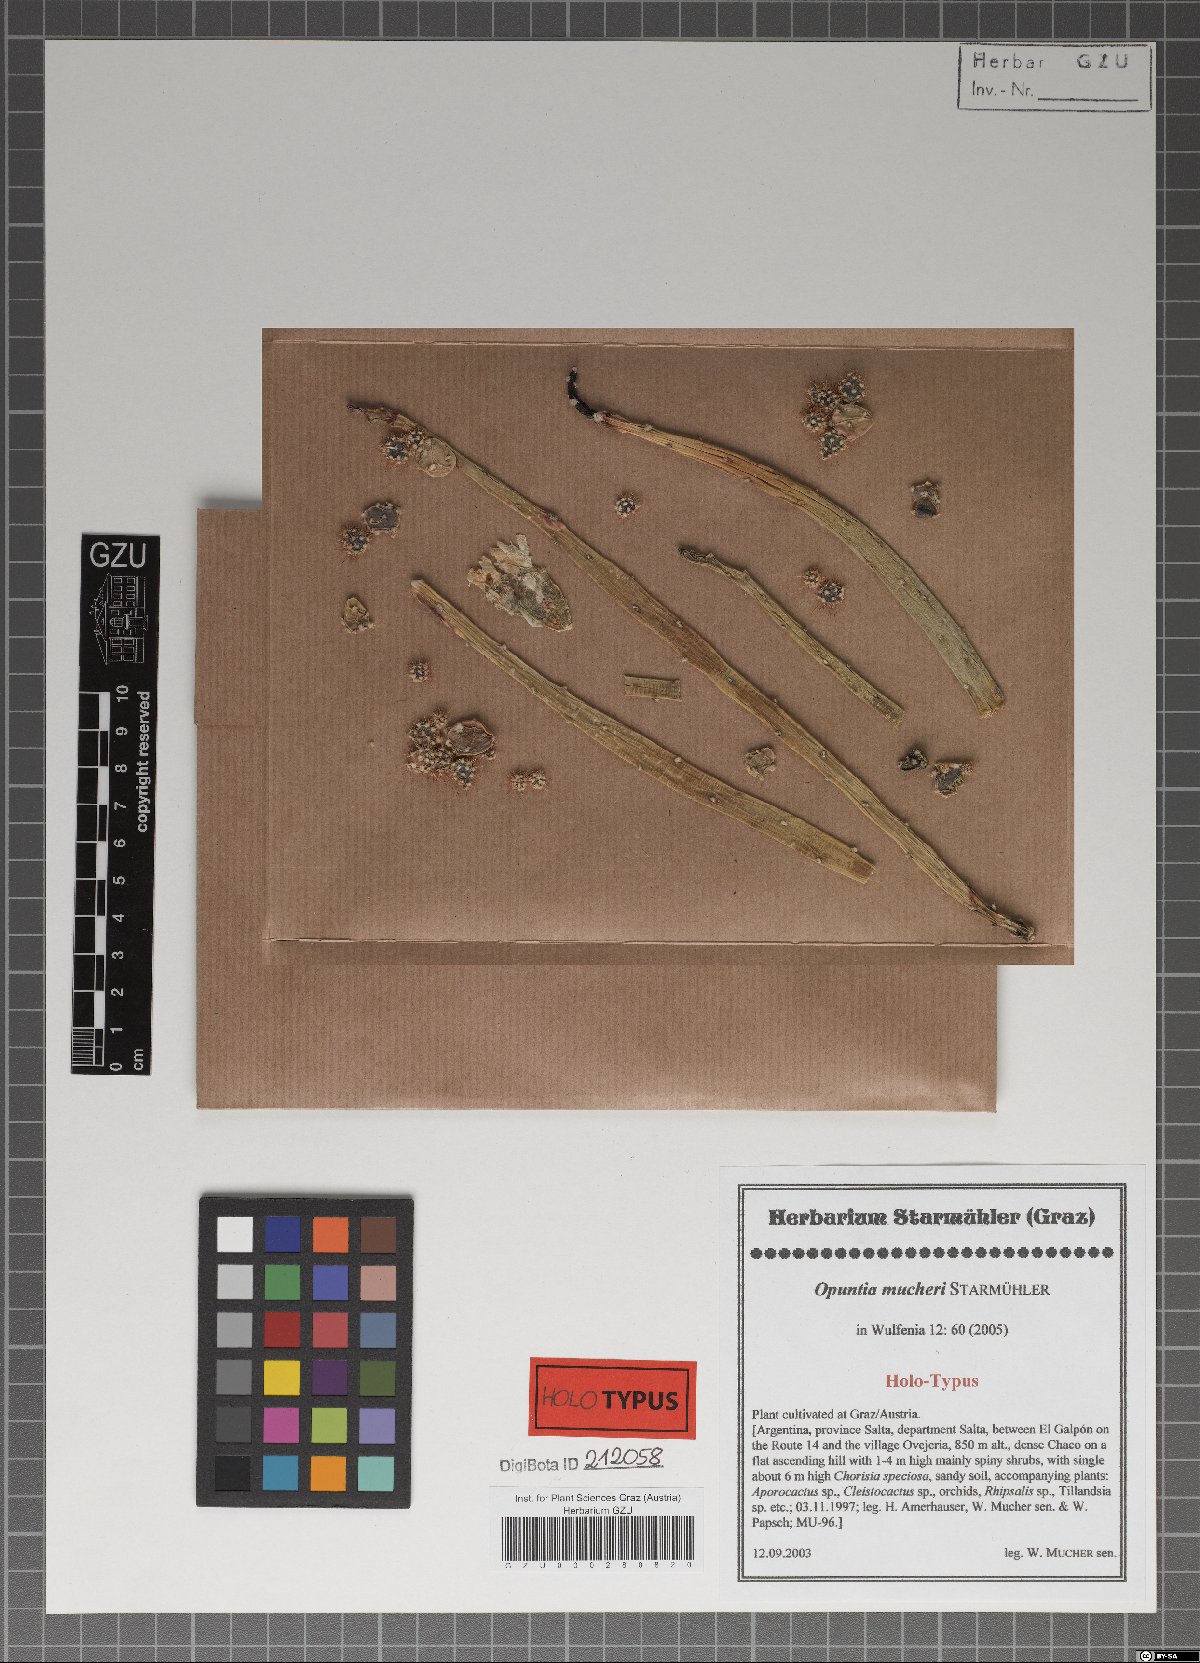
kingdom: Plantae
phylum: Tracheophyta
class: Magnoliopsida
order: Caryophyllales
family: Cactaceae
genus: Salmonopuntia
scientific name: Salmonopuntia salmiana
